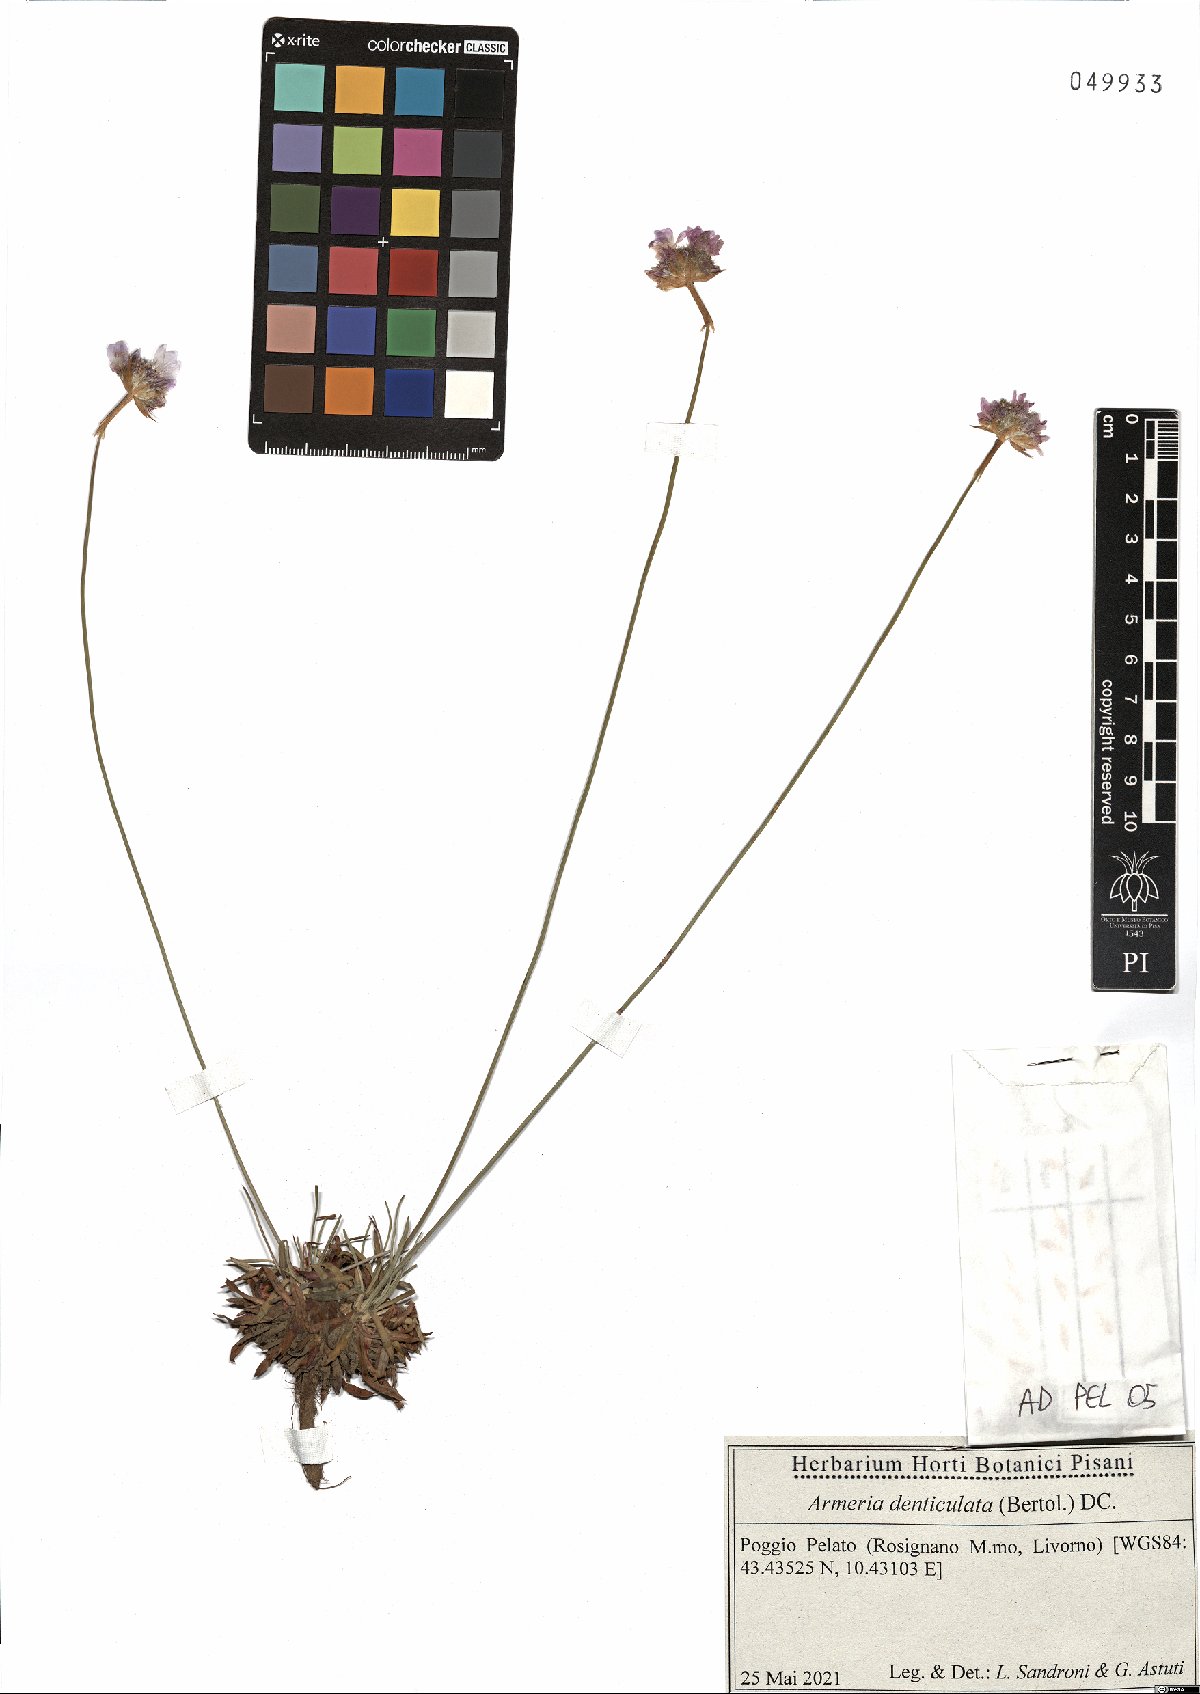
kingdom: Plantae
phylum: Tracheophyta
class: Magnoliopsida
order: Caryophyllales
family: Plumbaginaceae
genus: Armeria
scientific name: Armeria denticulata
